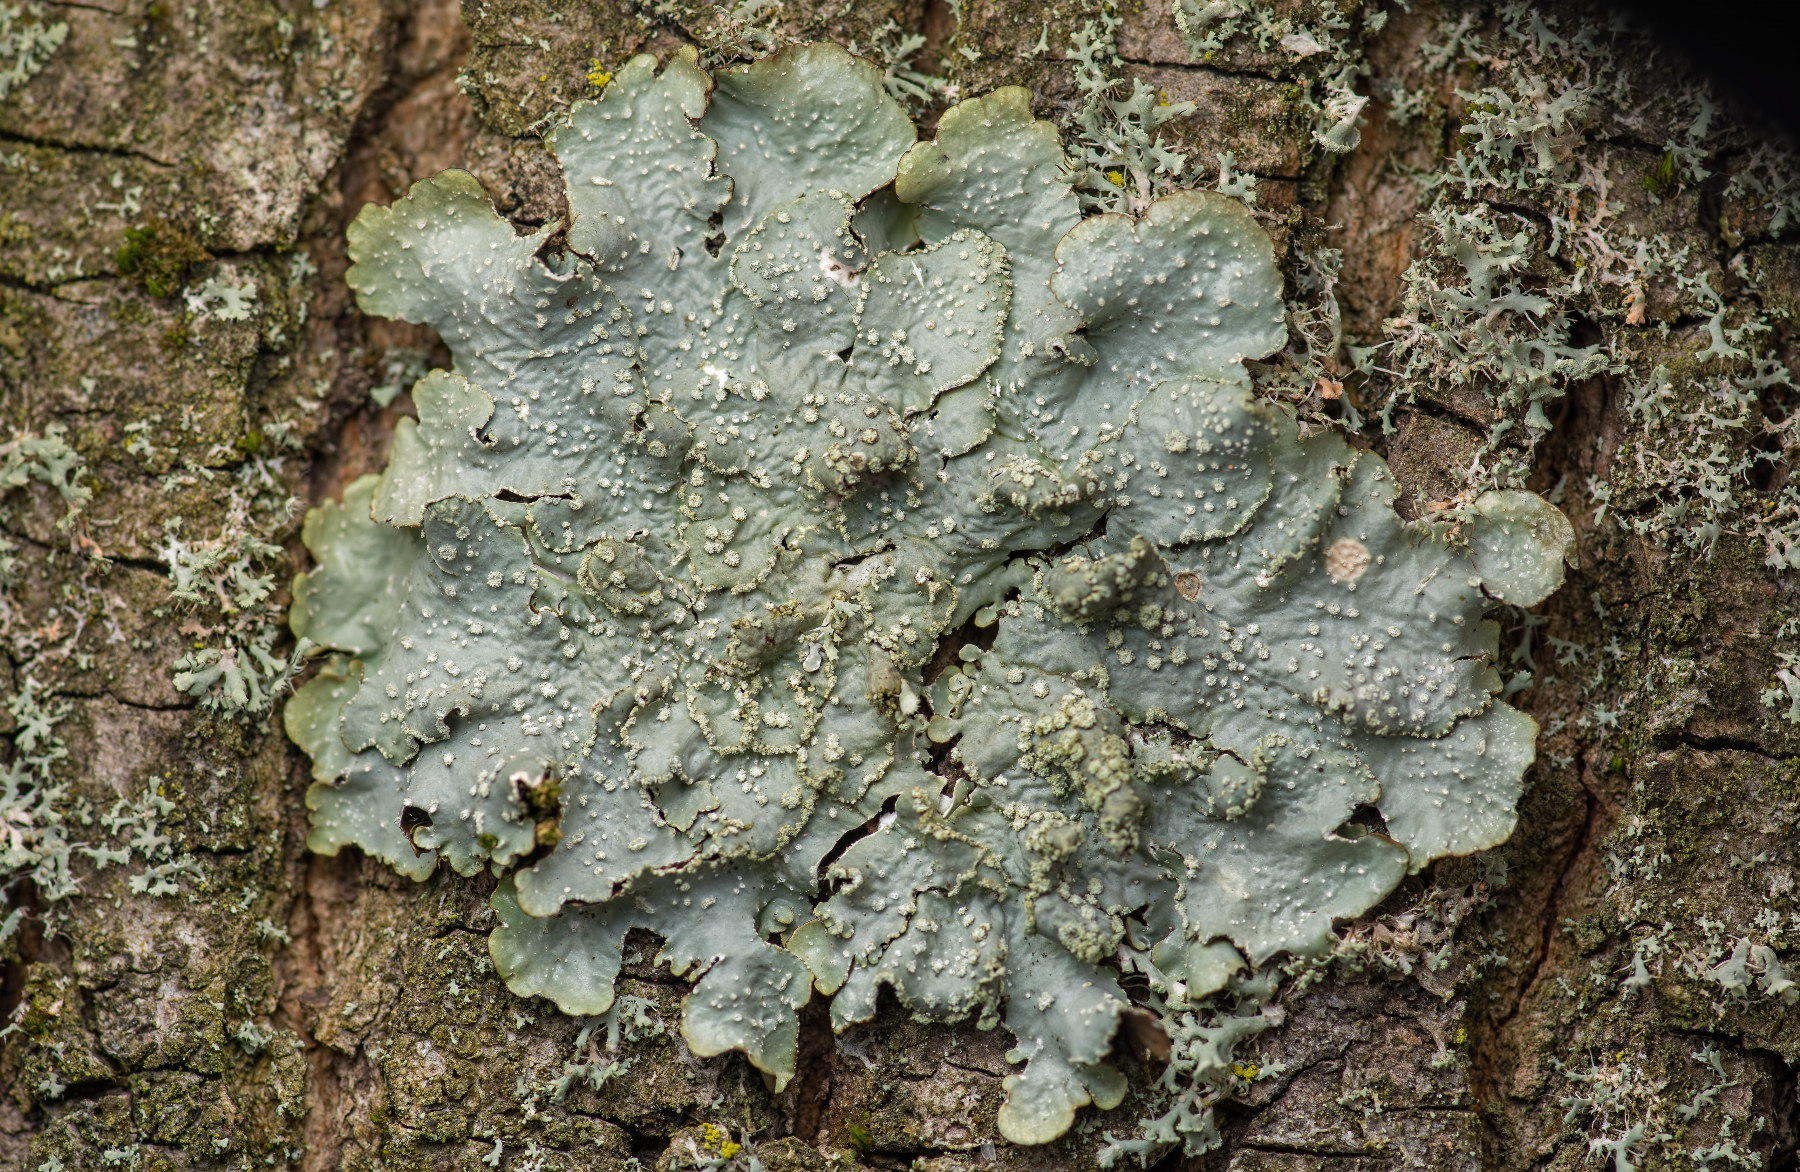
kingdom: Fungi
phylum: Ascomycota
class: Lecanoromycetes
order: Lecanorales
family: Parmeliaceae
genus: Punctelia
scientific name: Punctelia subrudecta
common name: punkt-skållav
